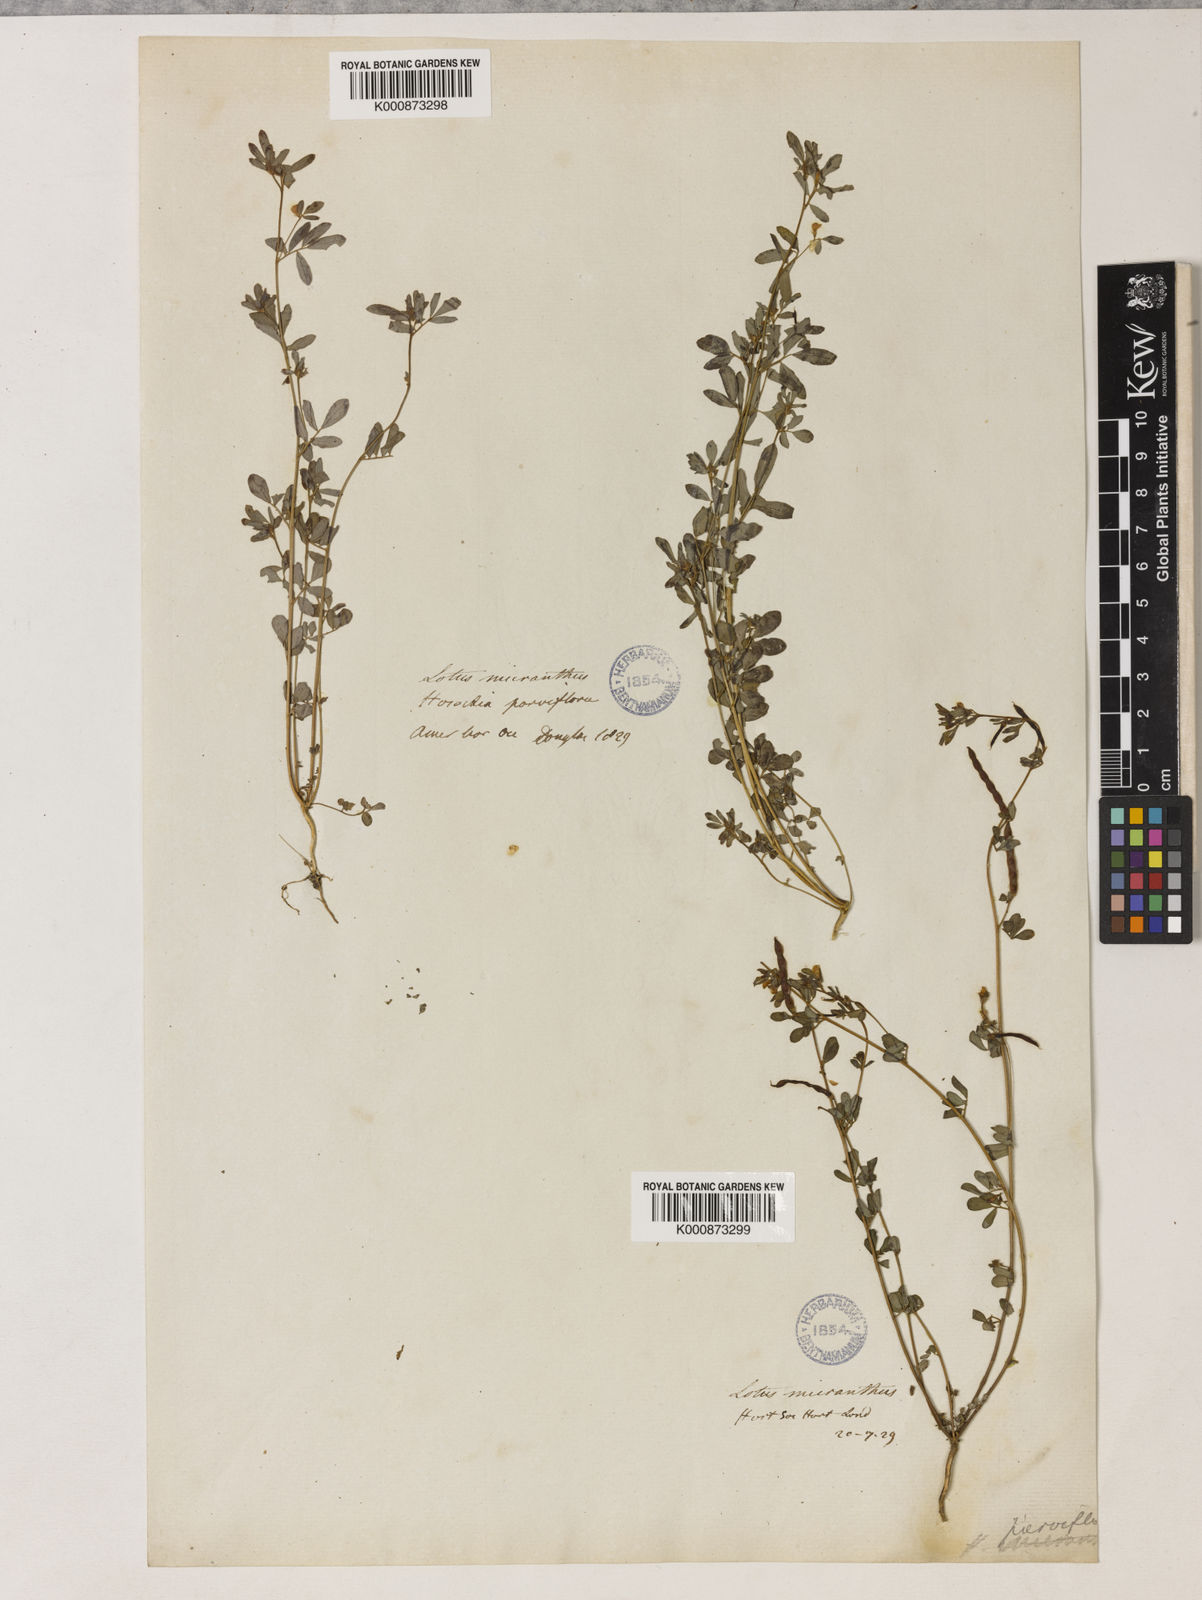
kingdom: Plantae
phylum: Tracheophyta
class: Magnoliopsida
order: Fabales
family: Fabaceae
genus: Acmispon
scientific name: Acmispon parviflorus
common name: Desert deer-vetch
